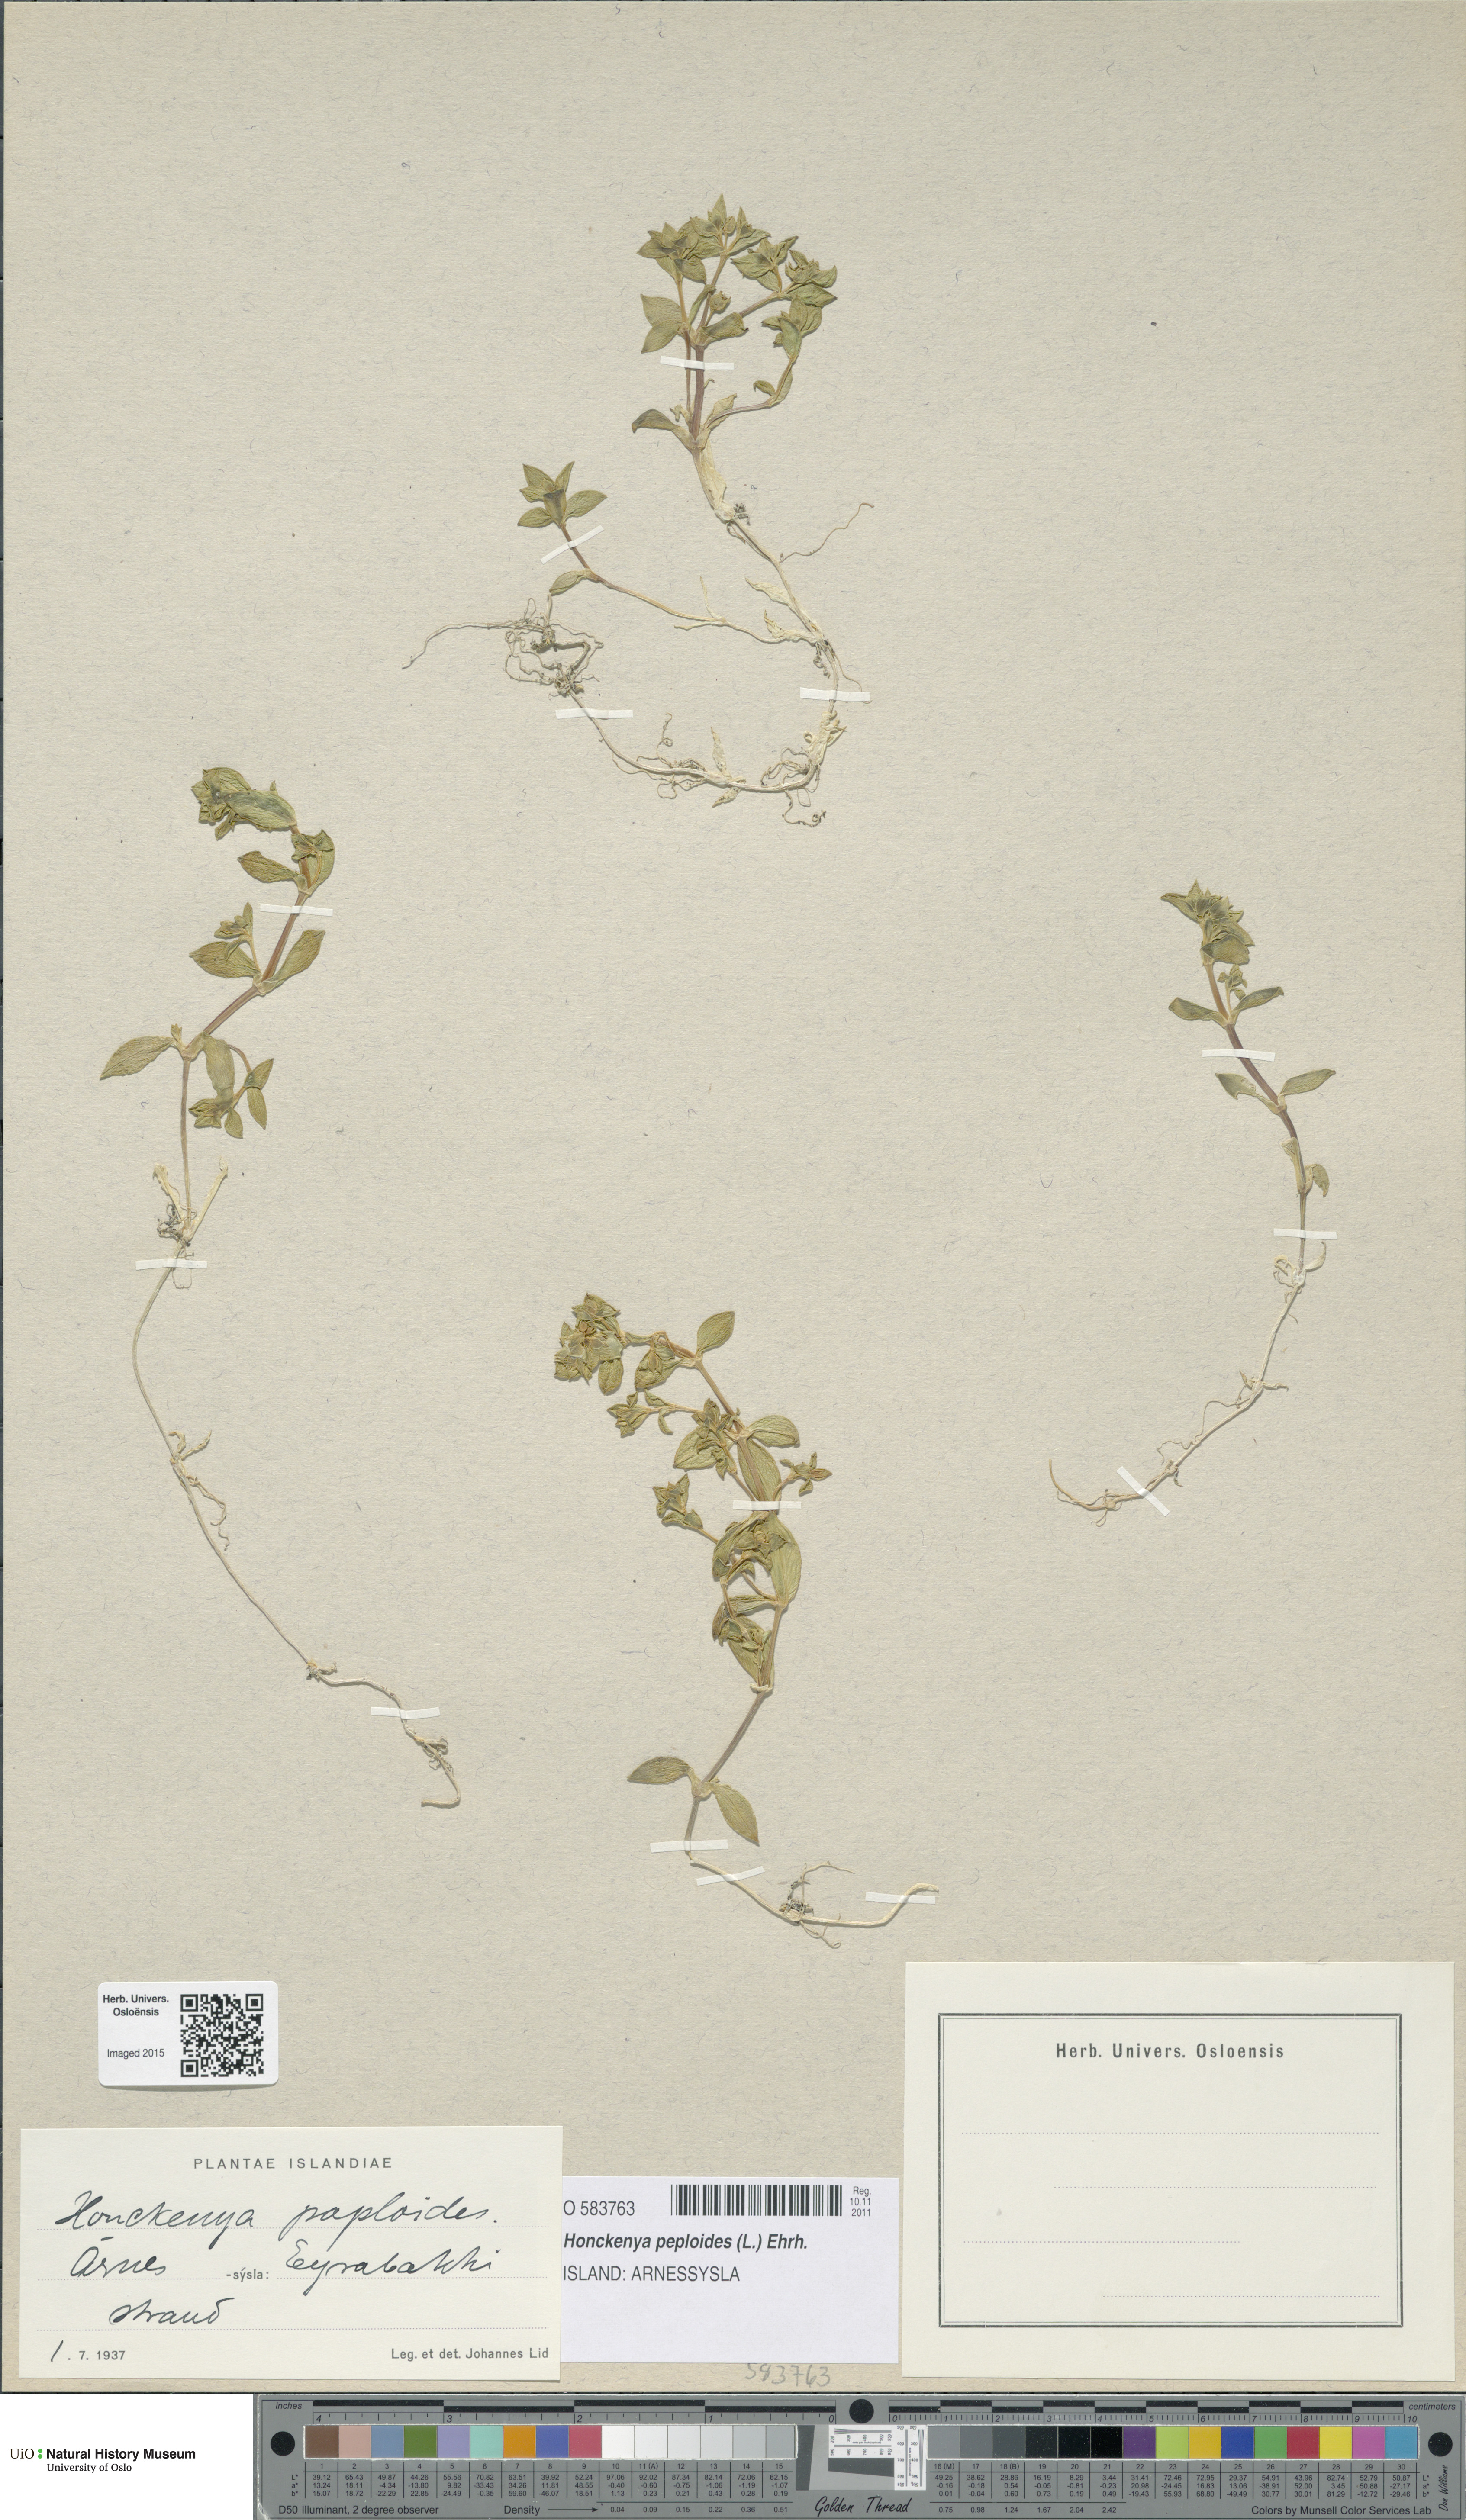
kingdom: Plantae
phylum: Tracheophyta
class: Magnoliopsida
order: Caryophyllales
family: Caryophyllaceae
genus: Honckenya
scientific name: Honckenya peploides
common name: Sea sandwort
